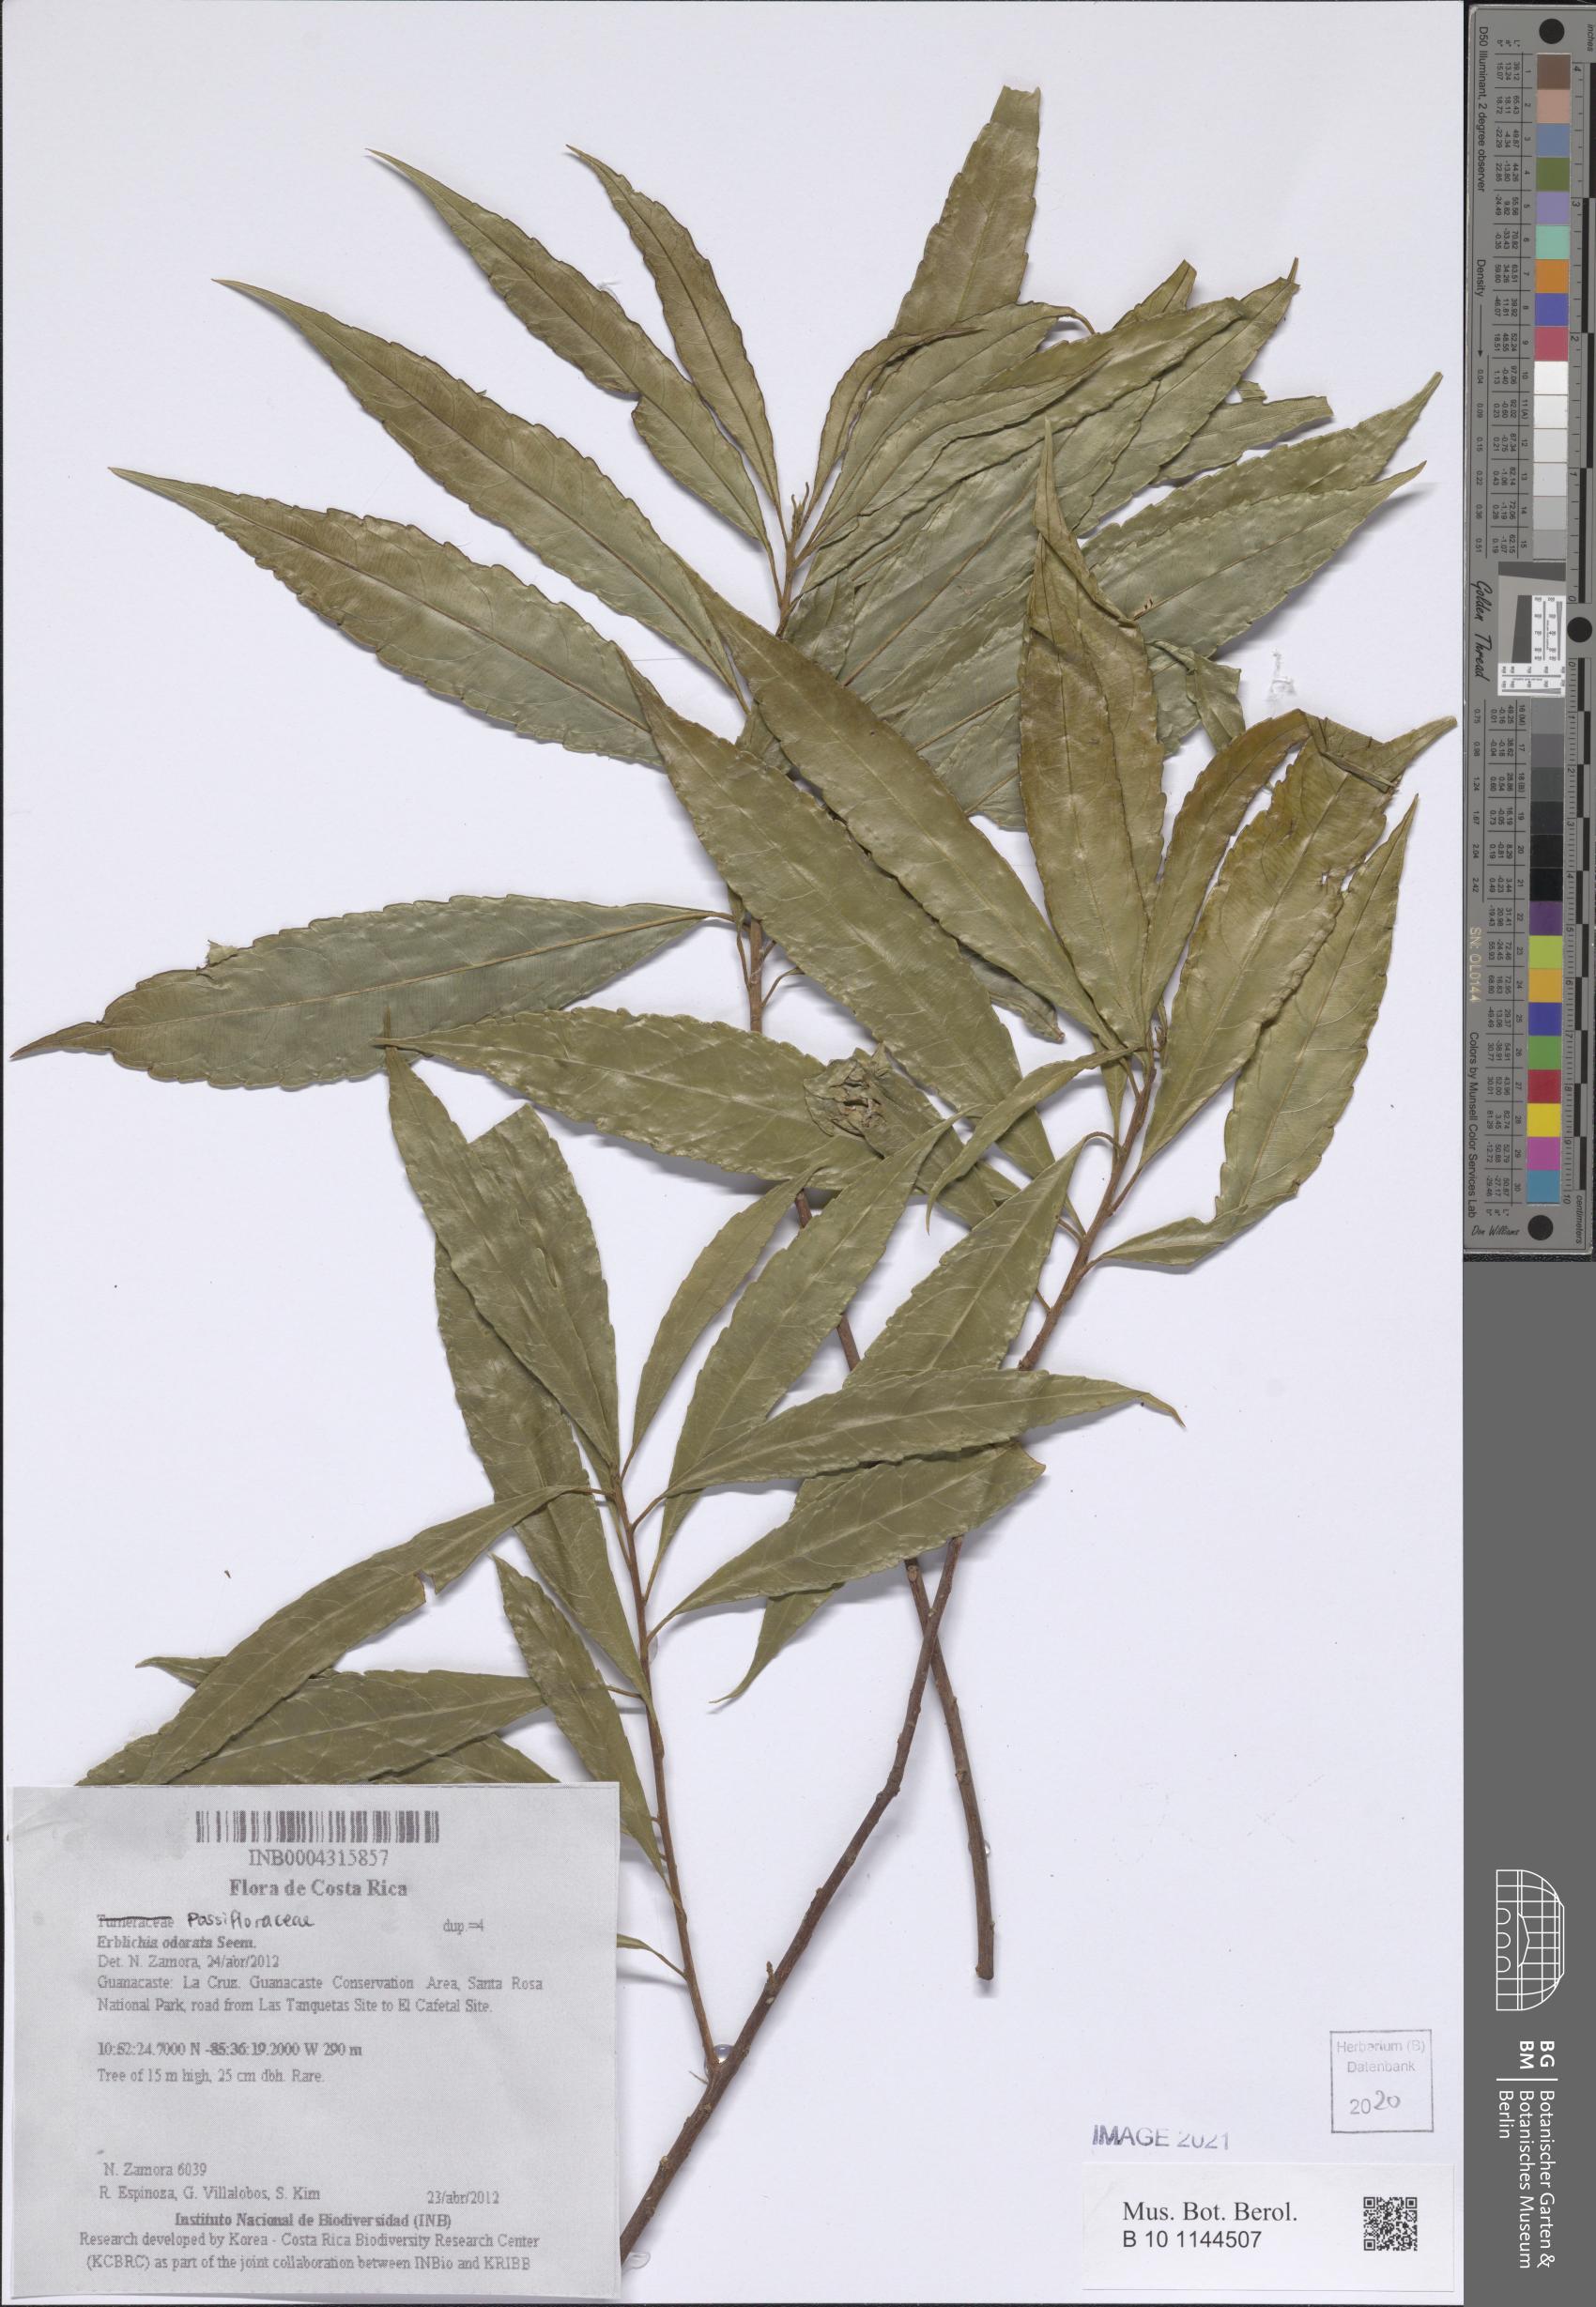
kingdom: Plantae
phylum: Tracheophyta
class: Magnoliopsida
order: Malpighiales
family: Turneraceae
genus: Erblichia
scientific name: Erblichia odorata
